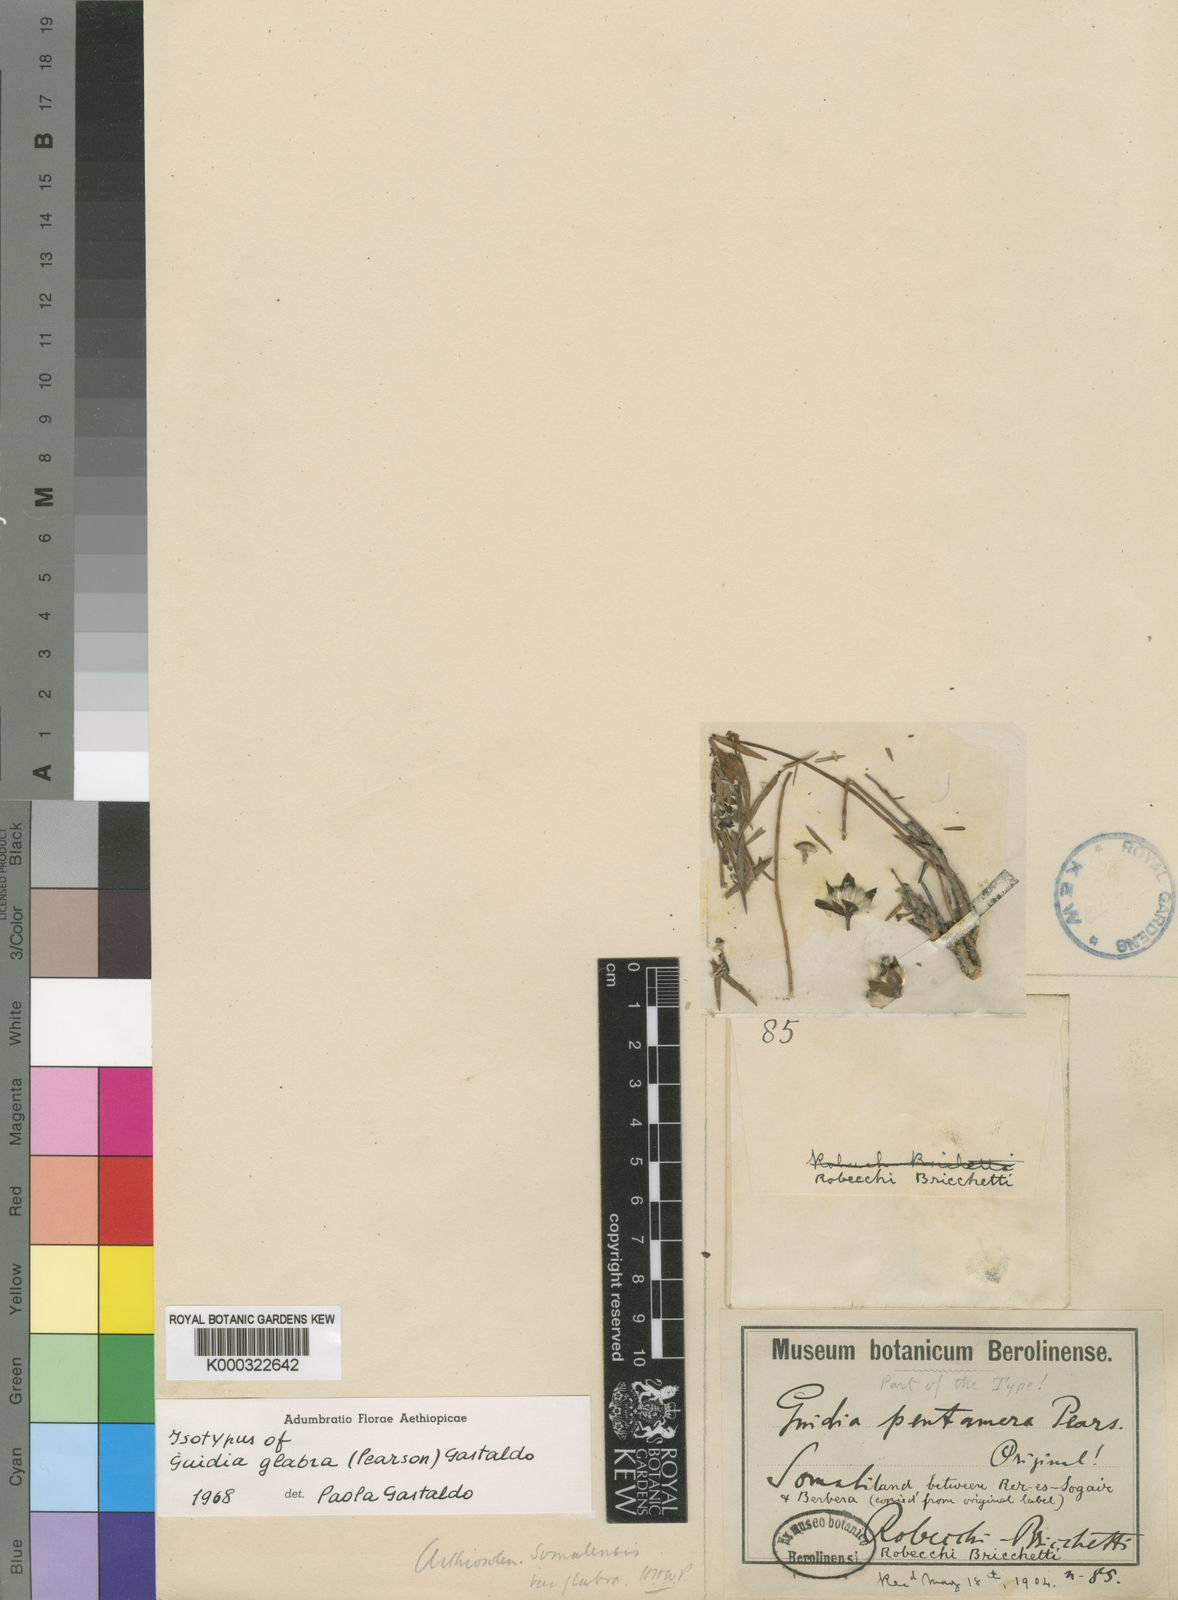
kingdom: Plantae
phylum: Tracheophyta
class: Magnoliopsida
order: Malvales
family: Thymelaeaceae
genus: Gnidia
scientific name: Gnidia somalensis
